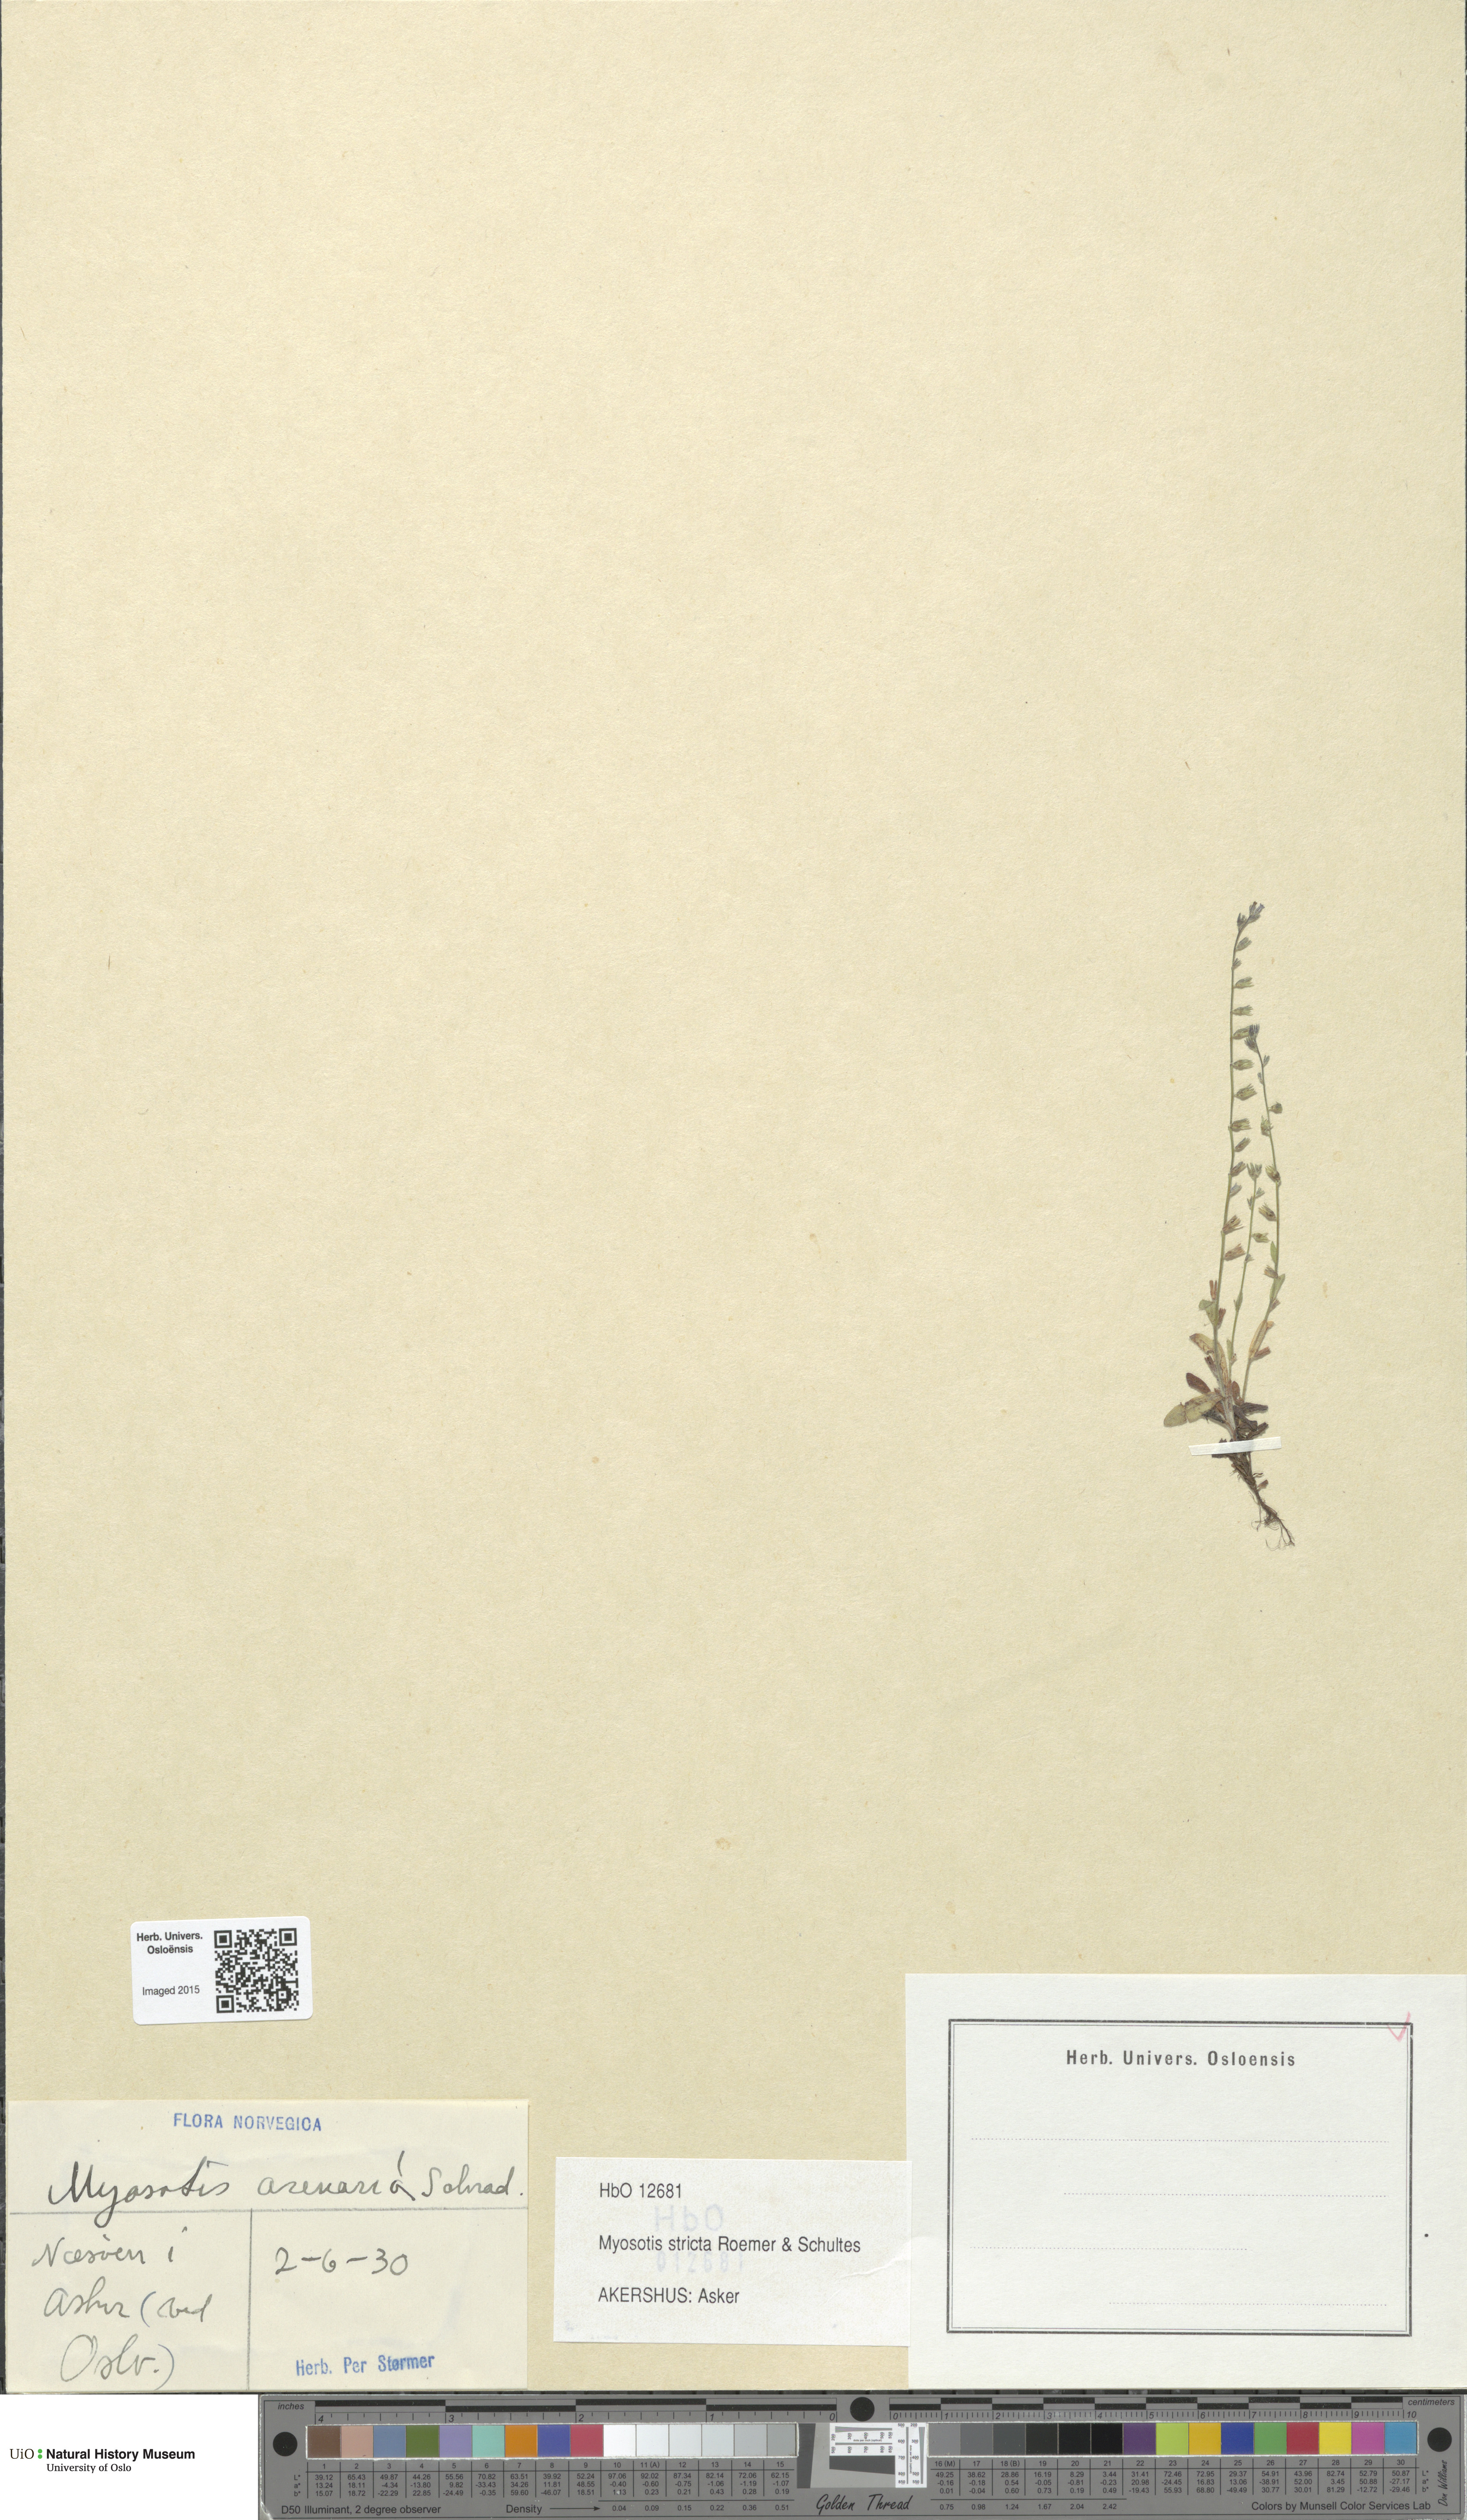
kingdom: Plantae
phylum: Tracheophyta
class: Magnoliopsida
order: Boraginales
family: Boraginaceae
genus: Myosotis
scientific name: Myosotis stricta
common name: Strict forget-me-not
